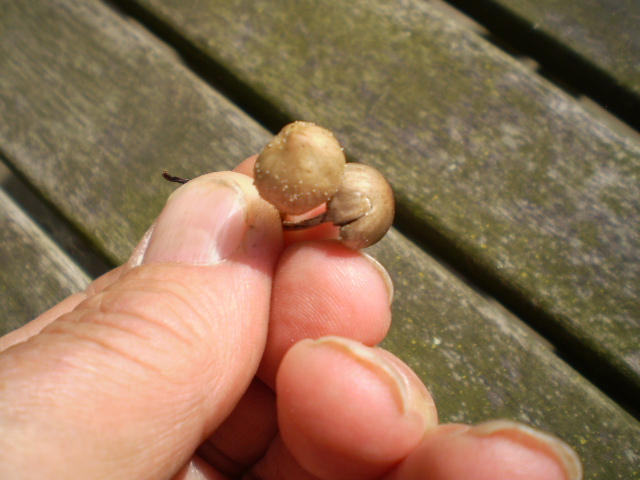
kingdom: Fungi
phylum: Basidiomycota
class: Agaricomycetes
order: Agaricales
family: Bolbitiaceae
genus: Panaeolus
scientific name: Panaeolus olivaceus
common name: lysstokket glanshat
